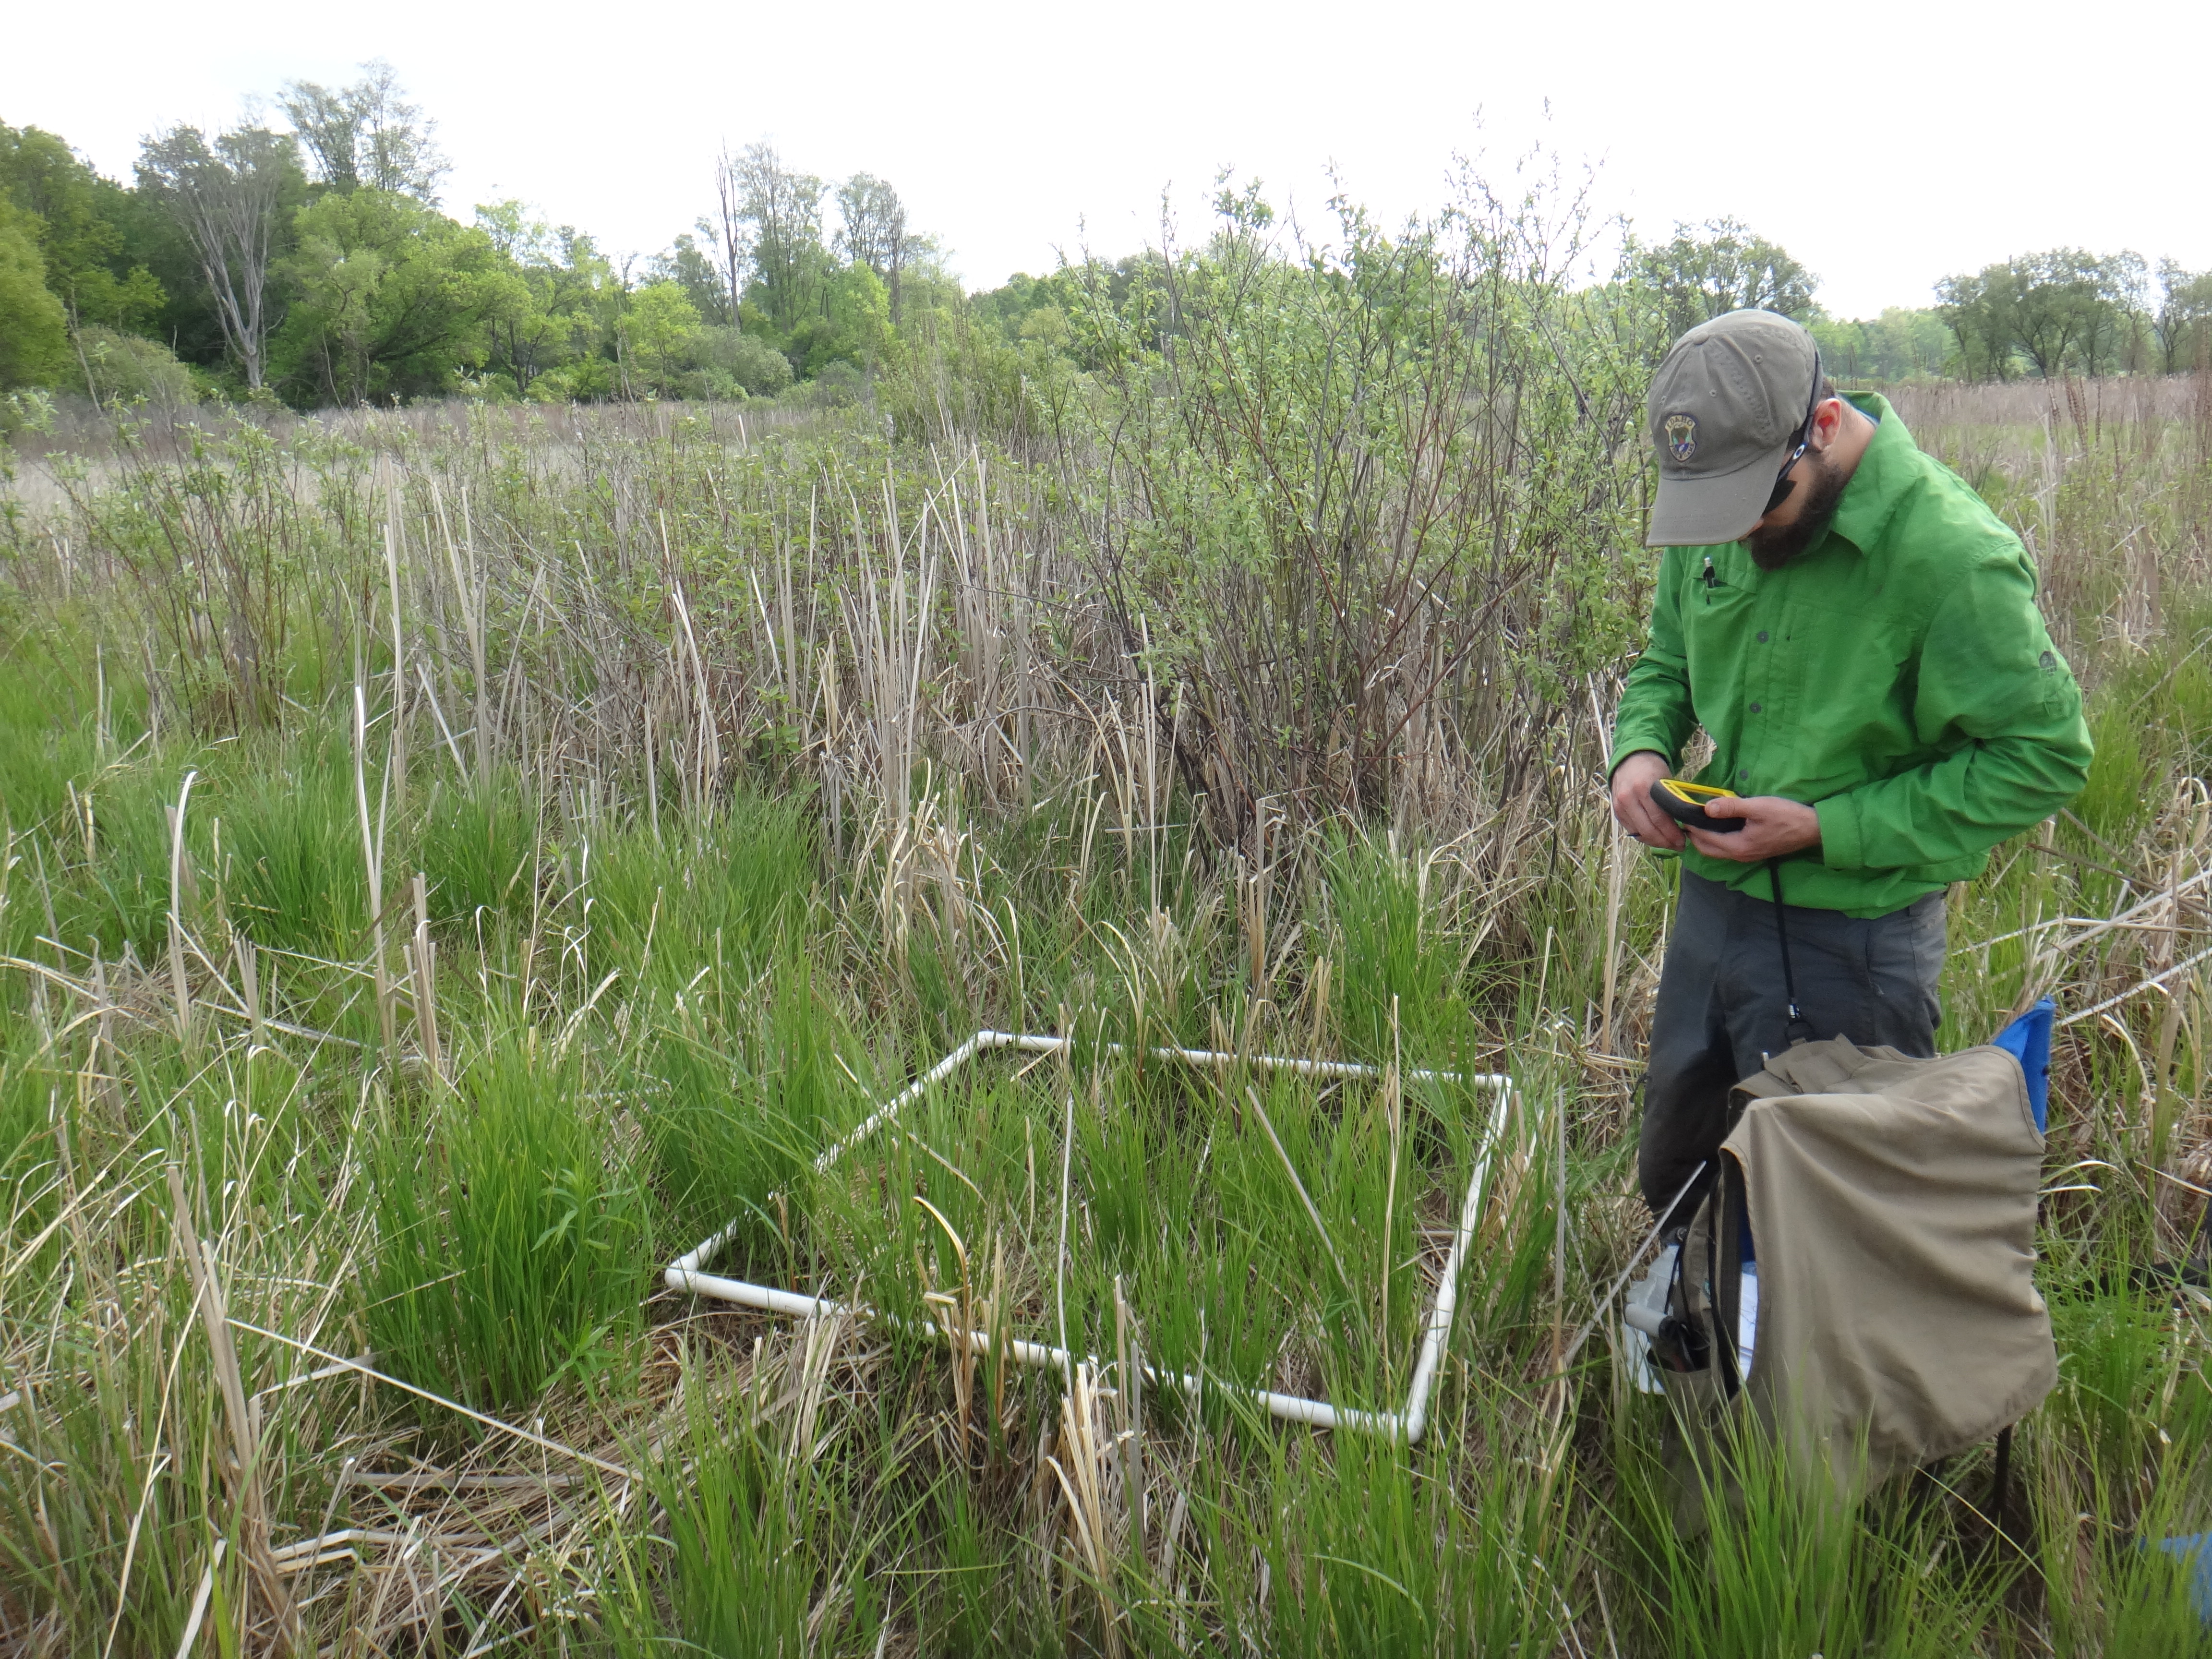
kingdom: Plantae
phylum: Tracheophyta
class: Magnoliopsida
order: Gentianales
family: Rubiaceae
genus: Galium
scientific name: Galium asprellum
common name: Rough bedstraw
